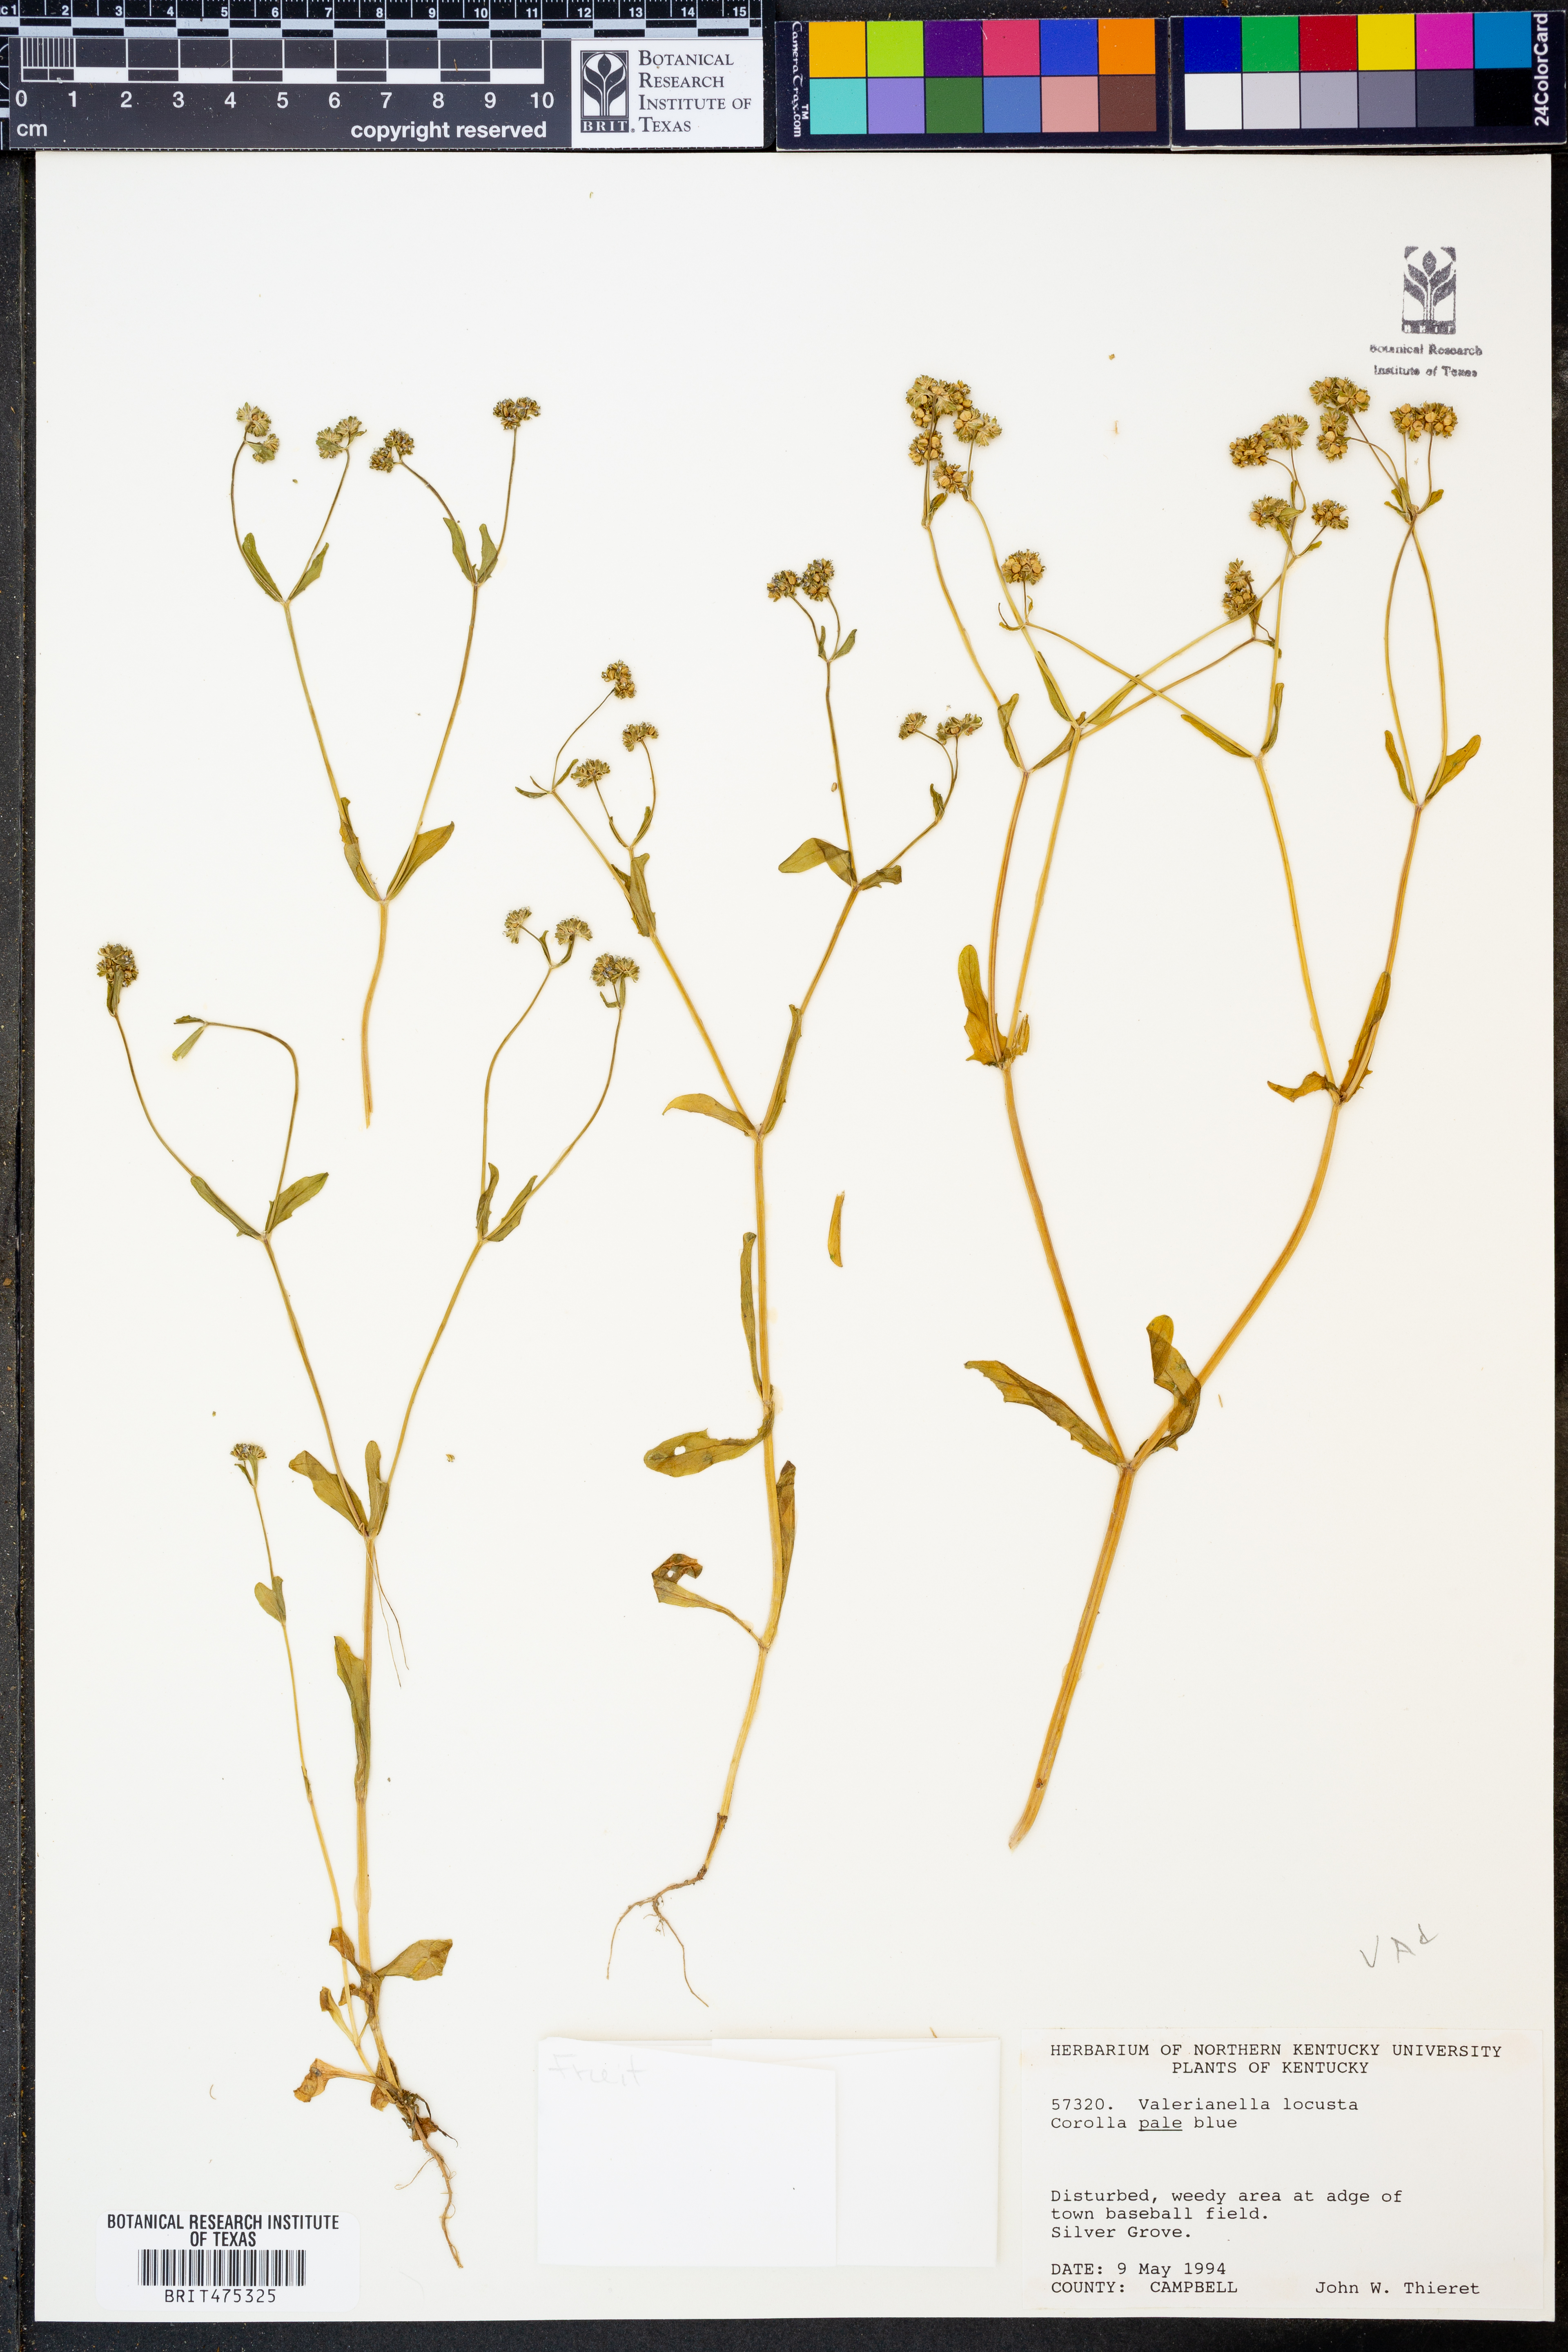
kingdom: Plantae
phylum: Tracheophyta
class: Magnoliopsida
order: Dipsacales
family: Caprifoliaceae
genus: Valerianella
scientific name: Valerianella locusta
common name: Common cornsalad
